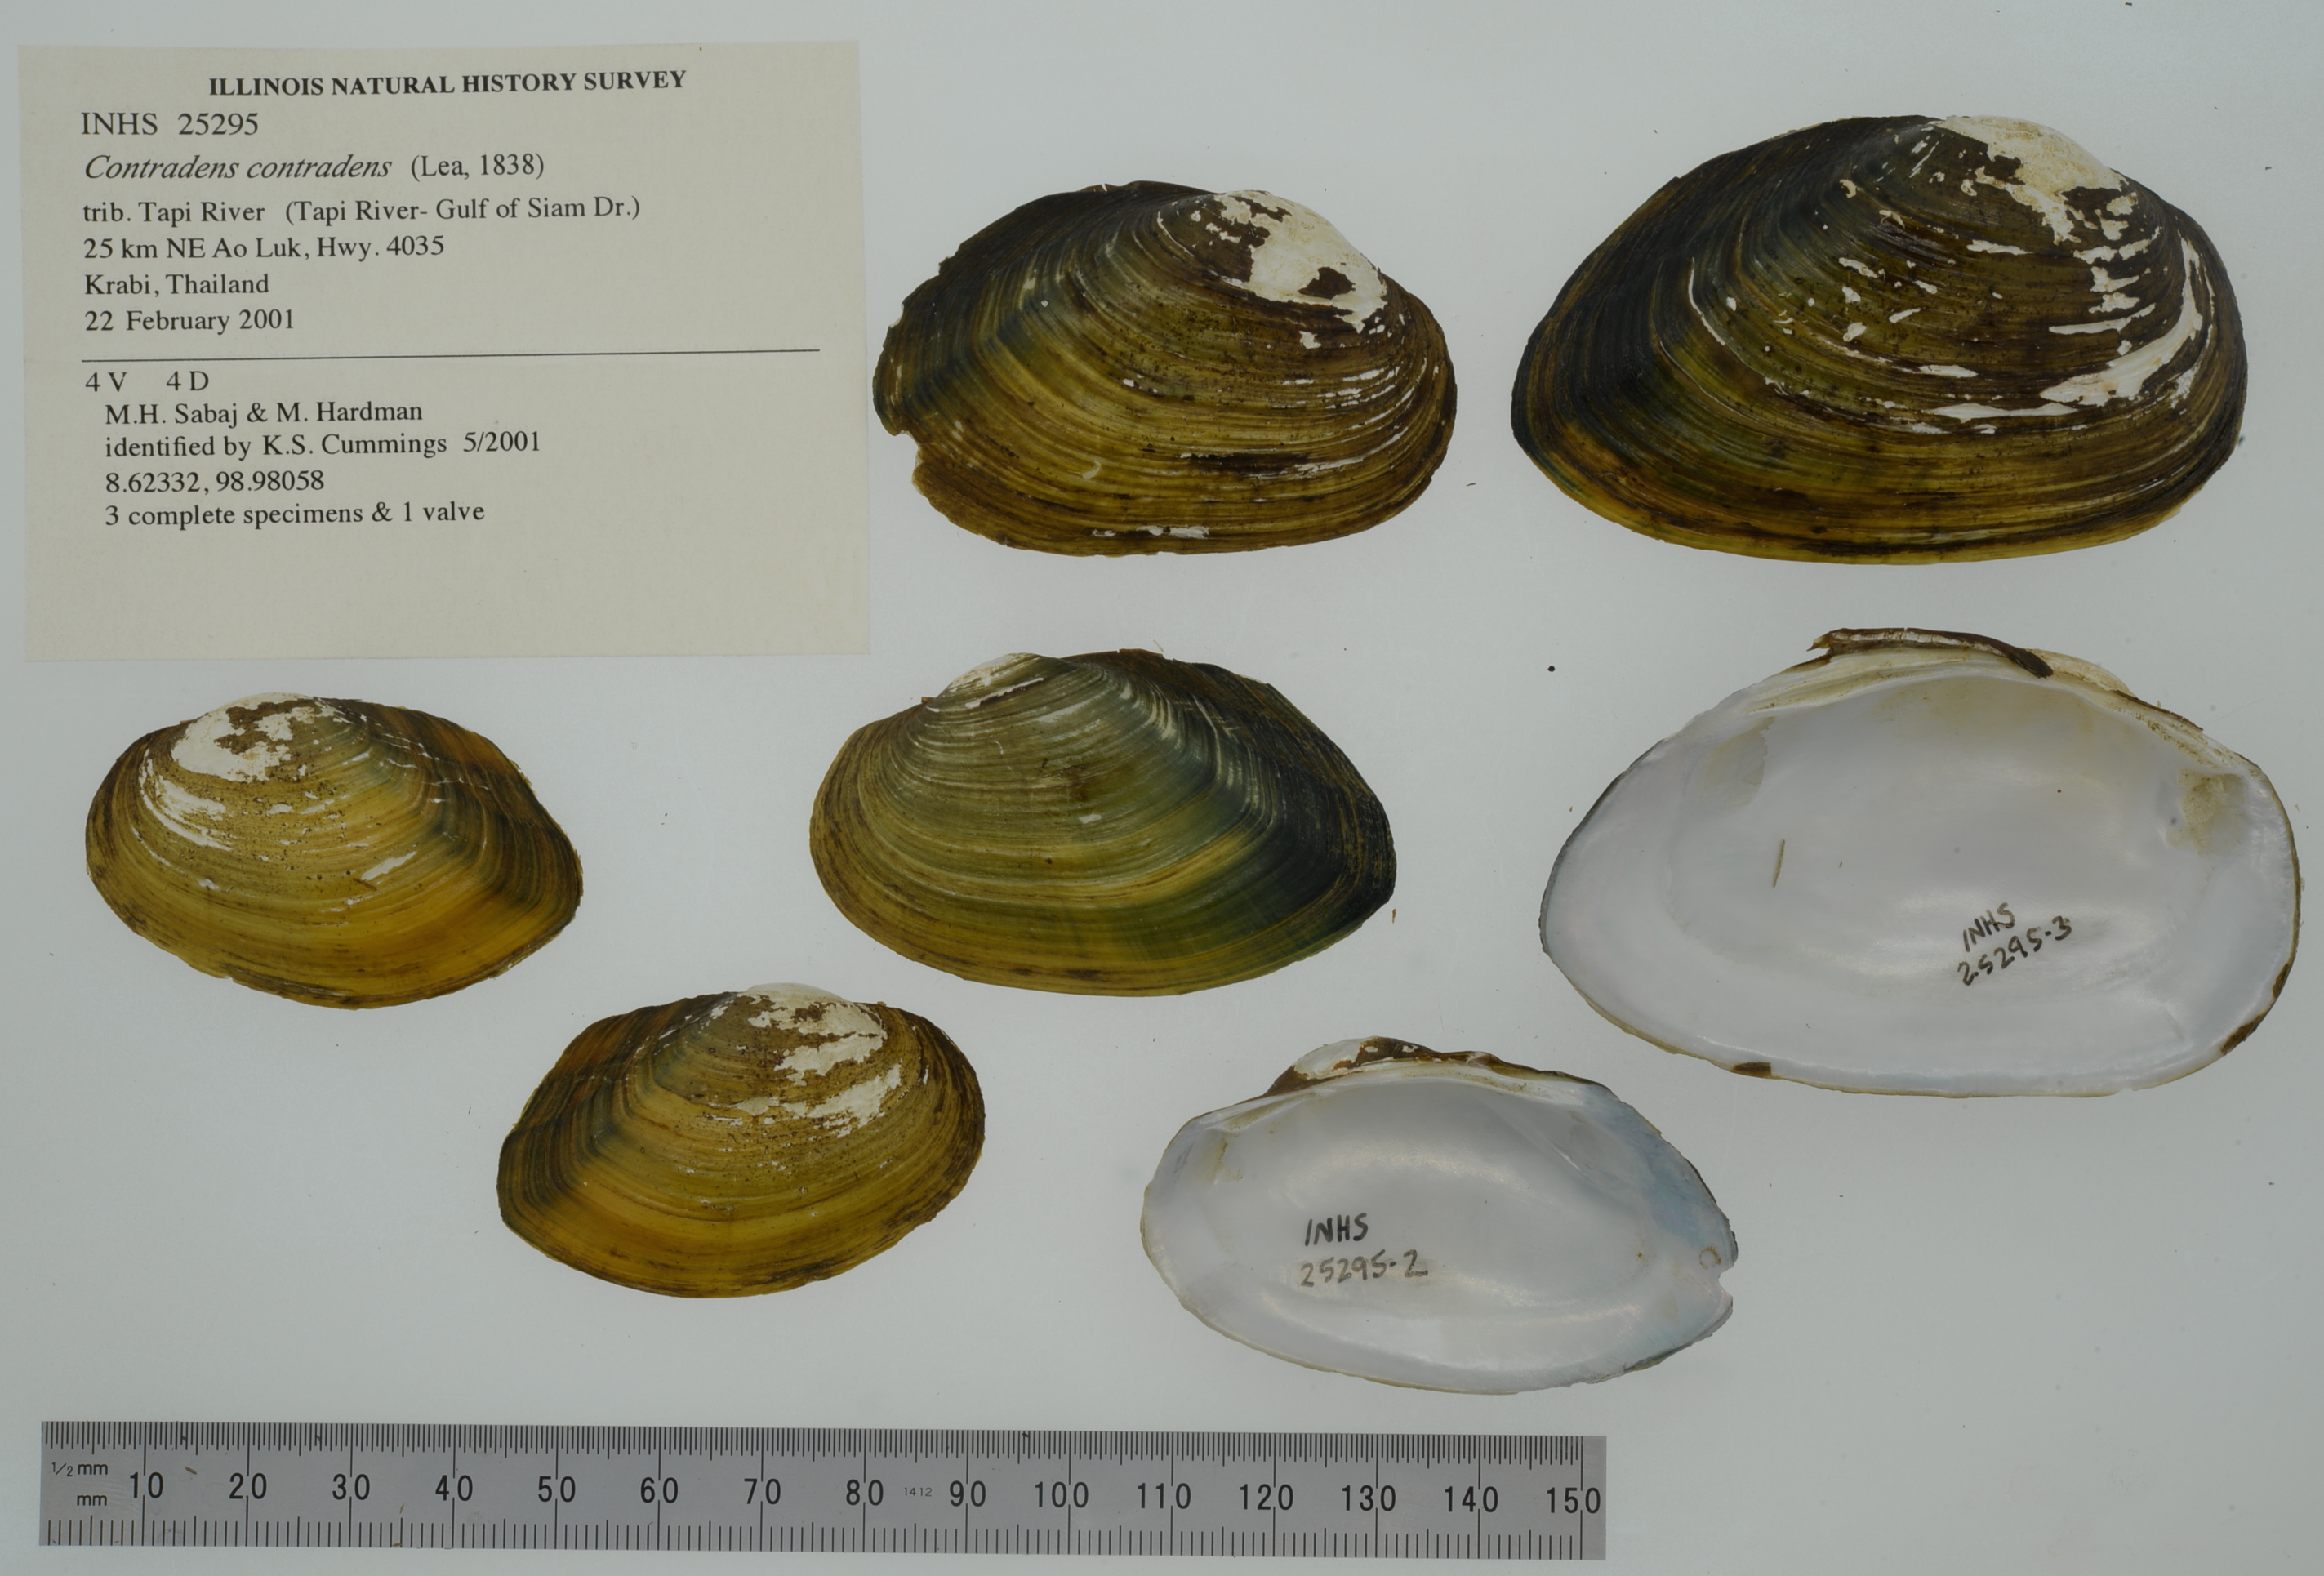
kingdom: Animalia
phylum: Mollusca
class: Bivalvia
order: Unionida
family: Unionidae
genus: Lens
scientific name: Lens contradens
